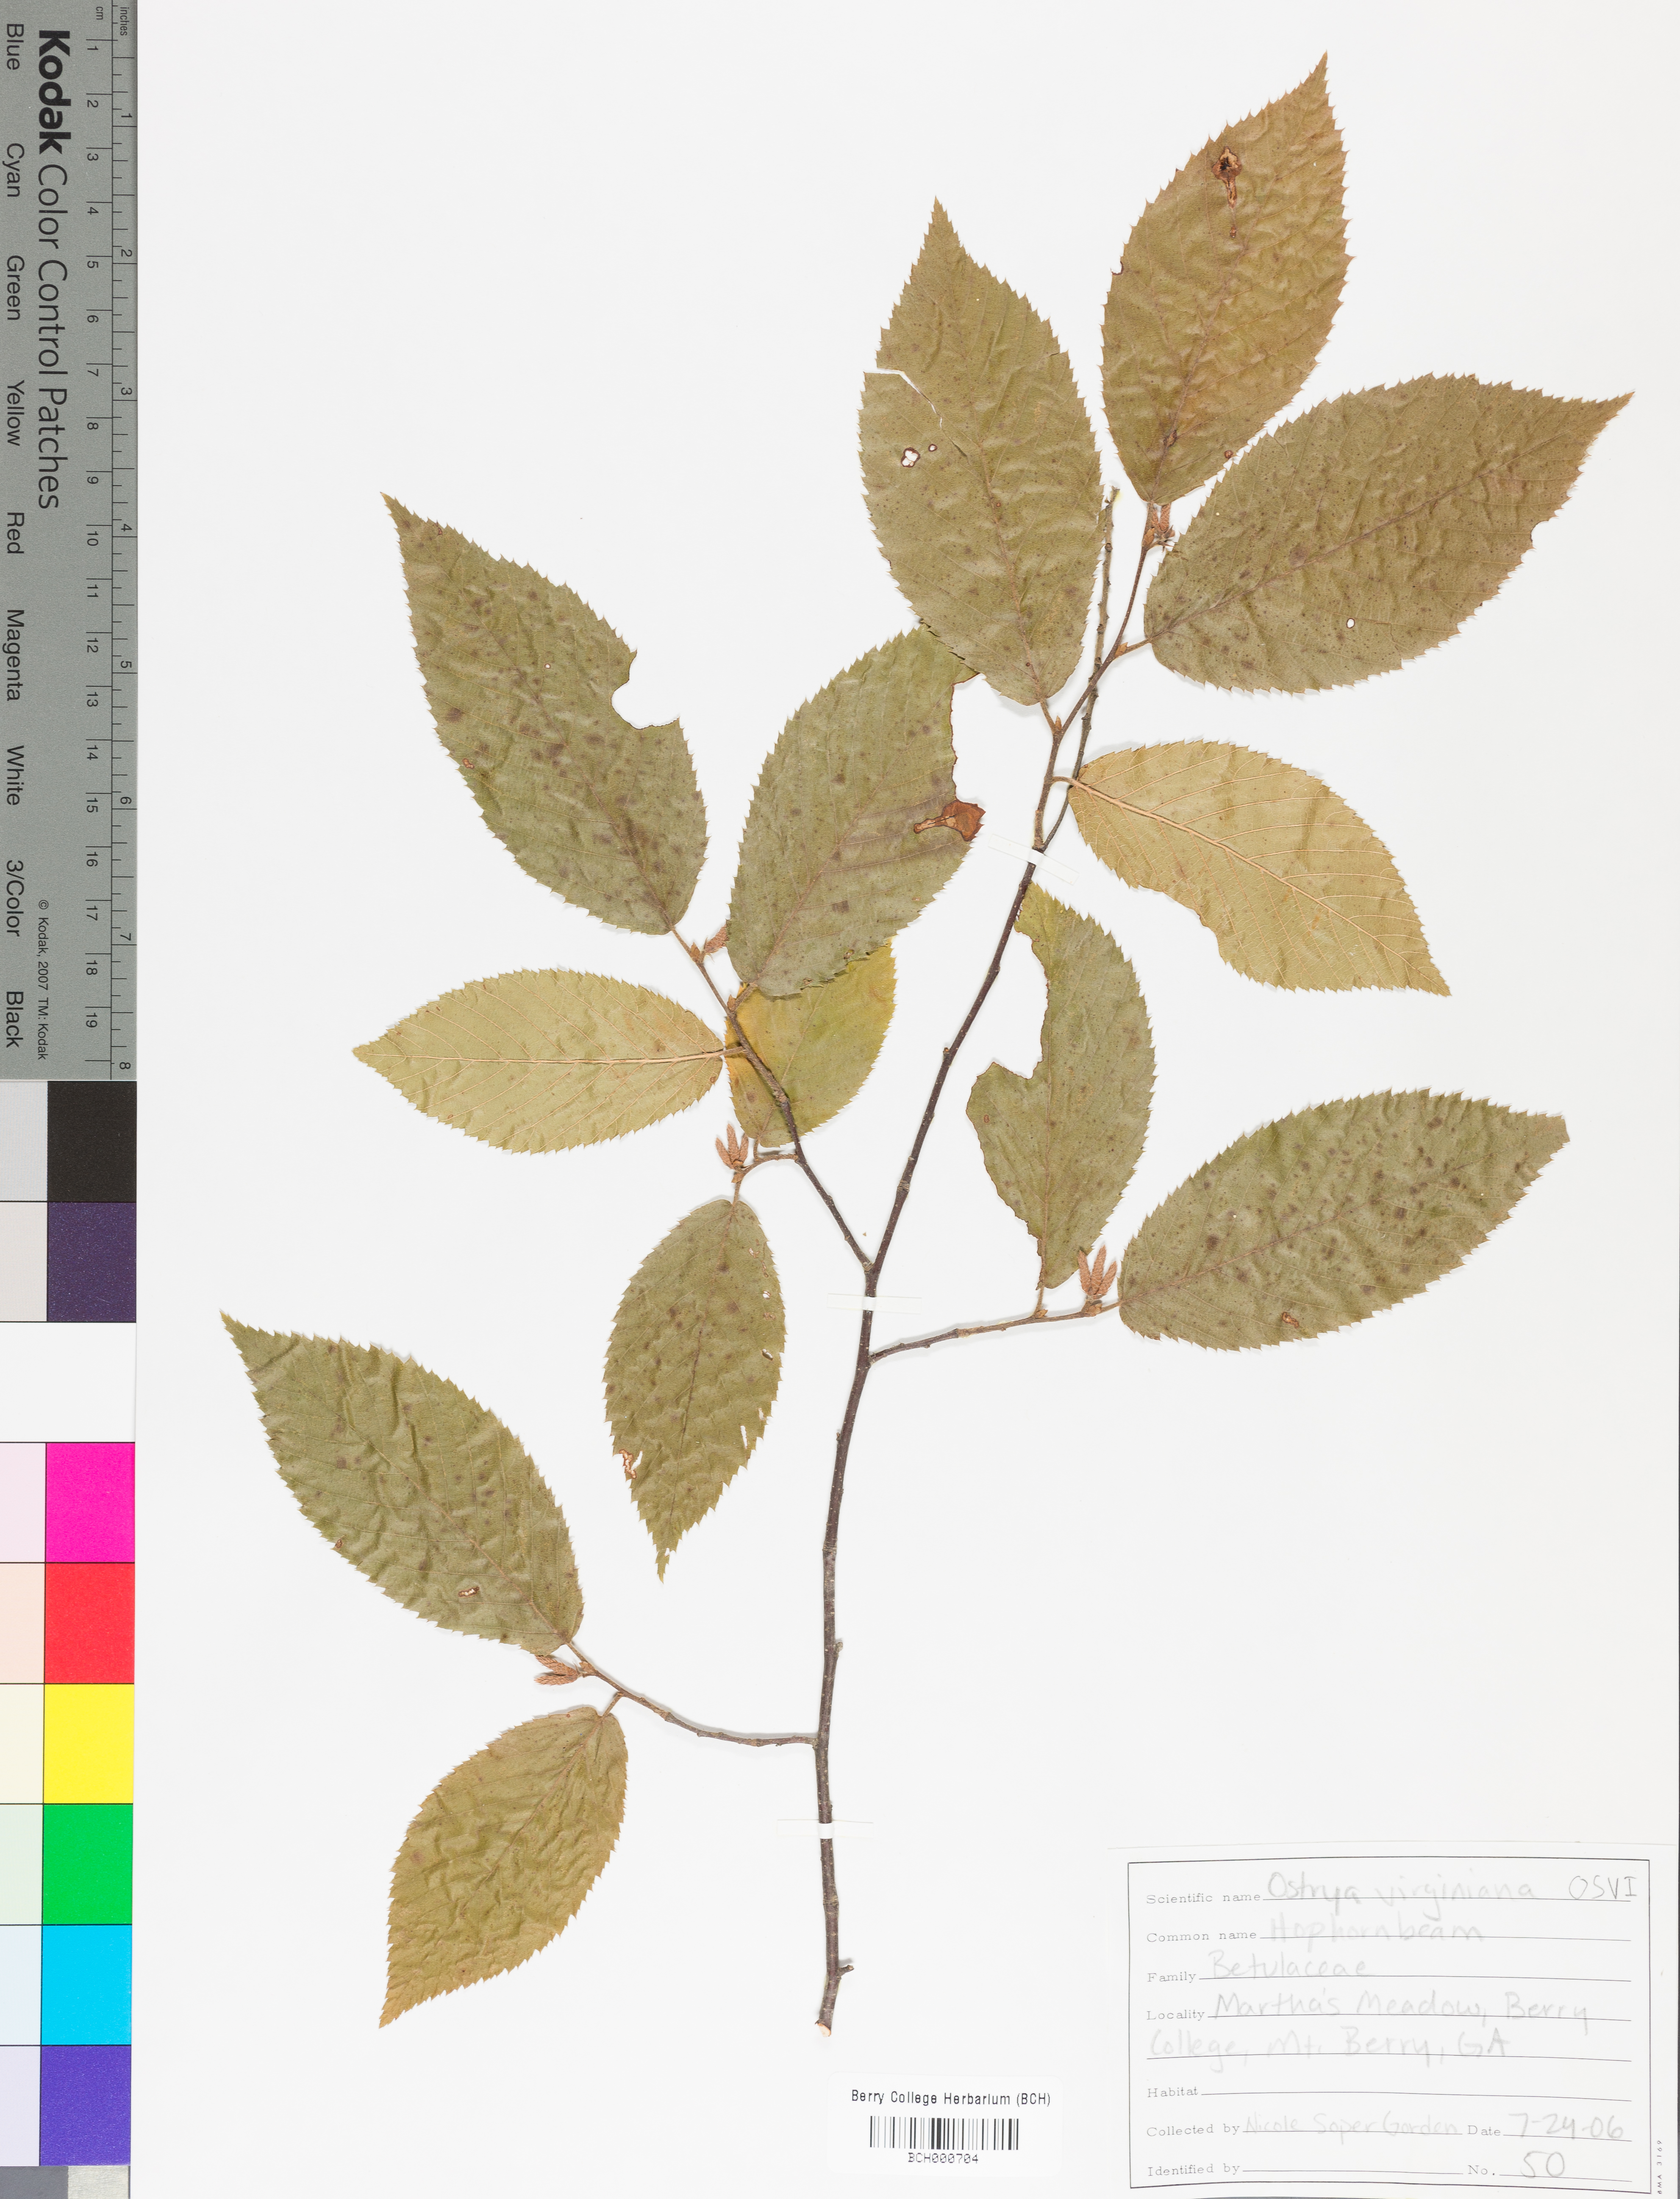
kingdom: Plantae
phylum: Tracheophyta
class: Magnoliopsida
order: Fagales
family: Betulaceae
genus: Ostrya
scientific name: Ostrya virginiana
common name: Ironwood
